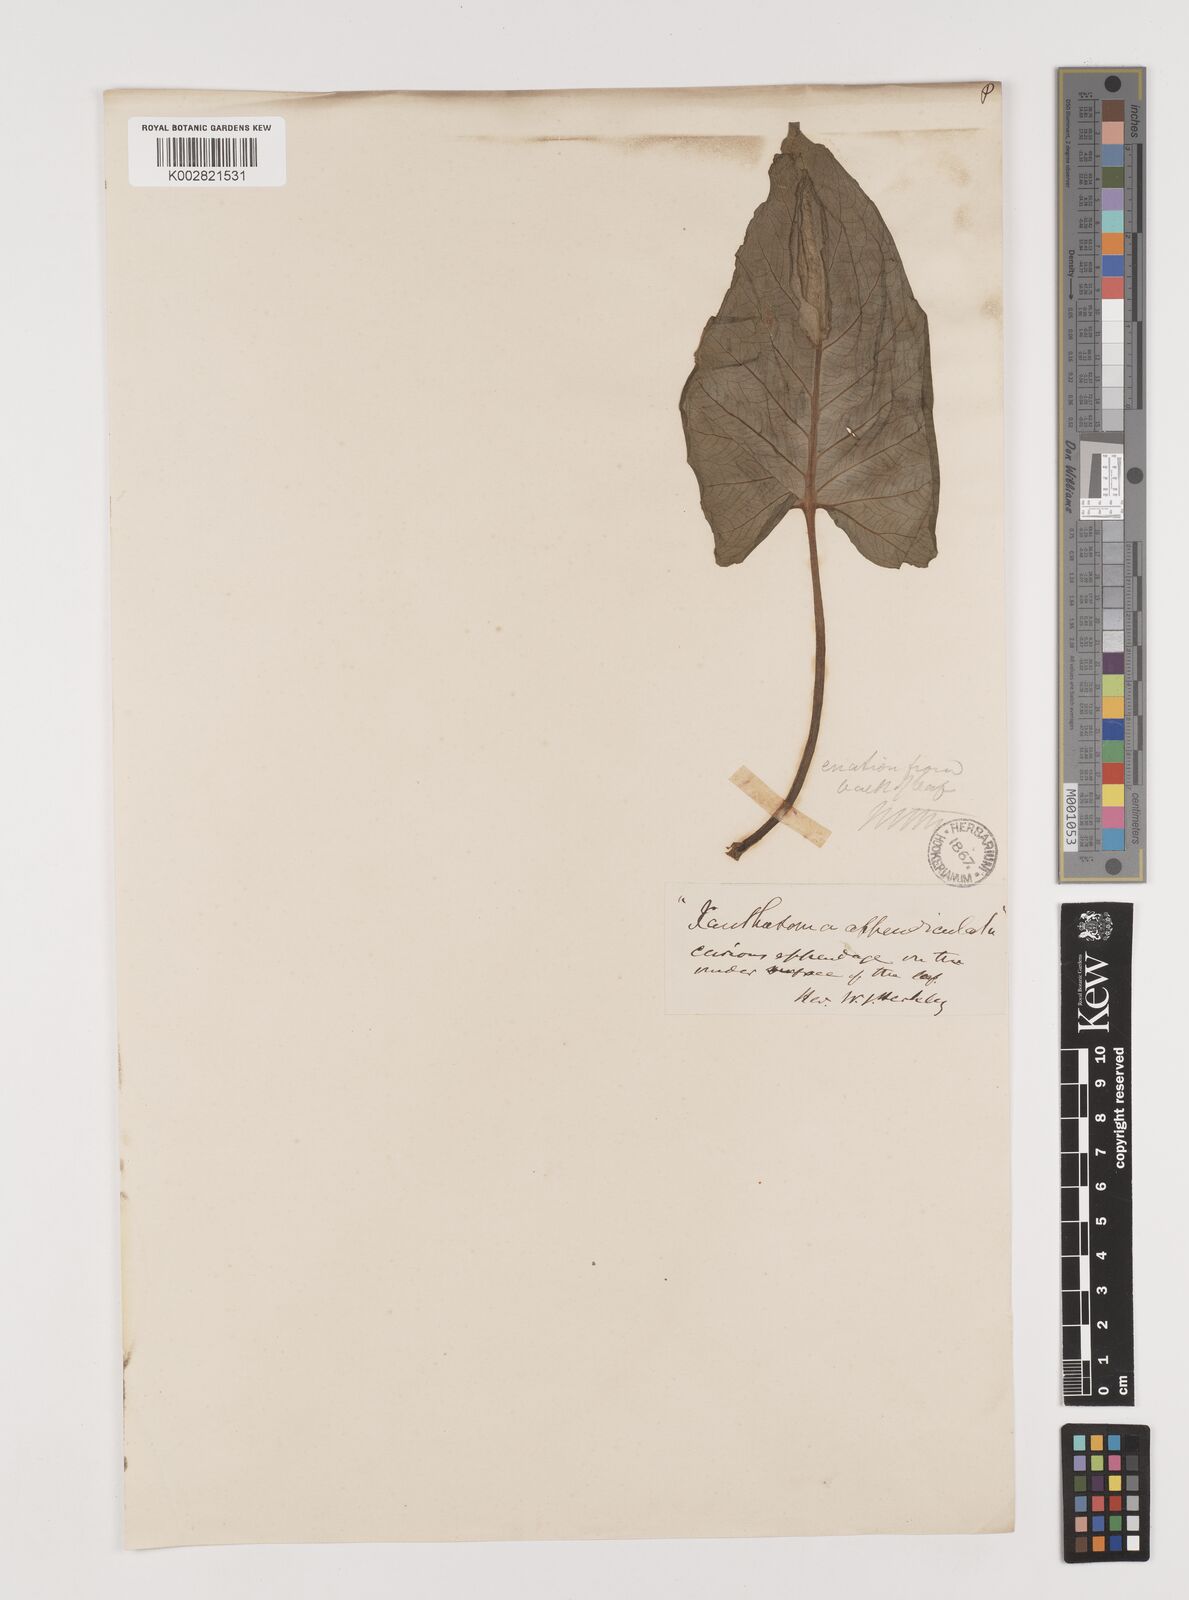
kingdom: Plantae
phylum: Tracheophyta
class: Liliopsida
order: Alismatales
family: Araceae
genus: Xanthosoma
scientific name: Xanthosoma sagittifolium
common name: Arrowleaf elephant's ear
